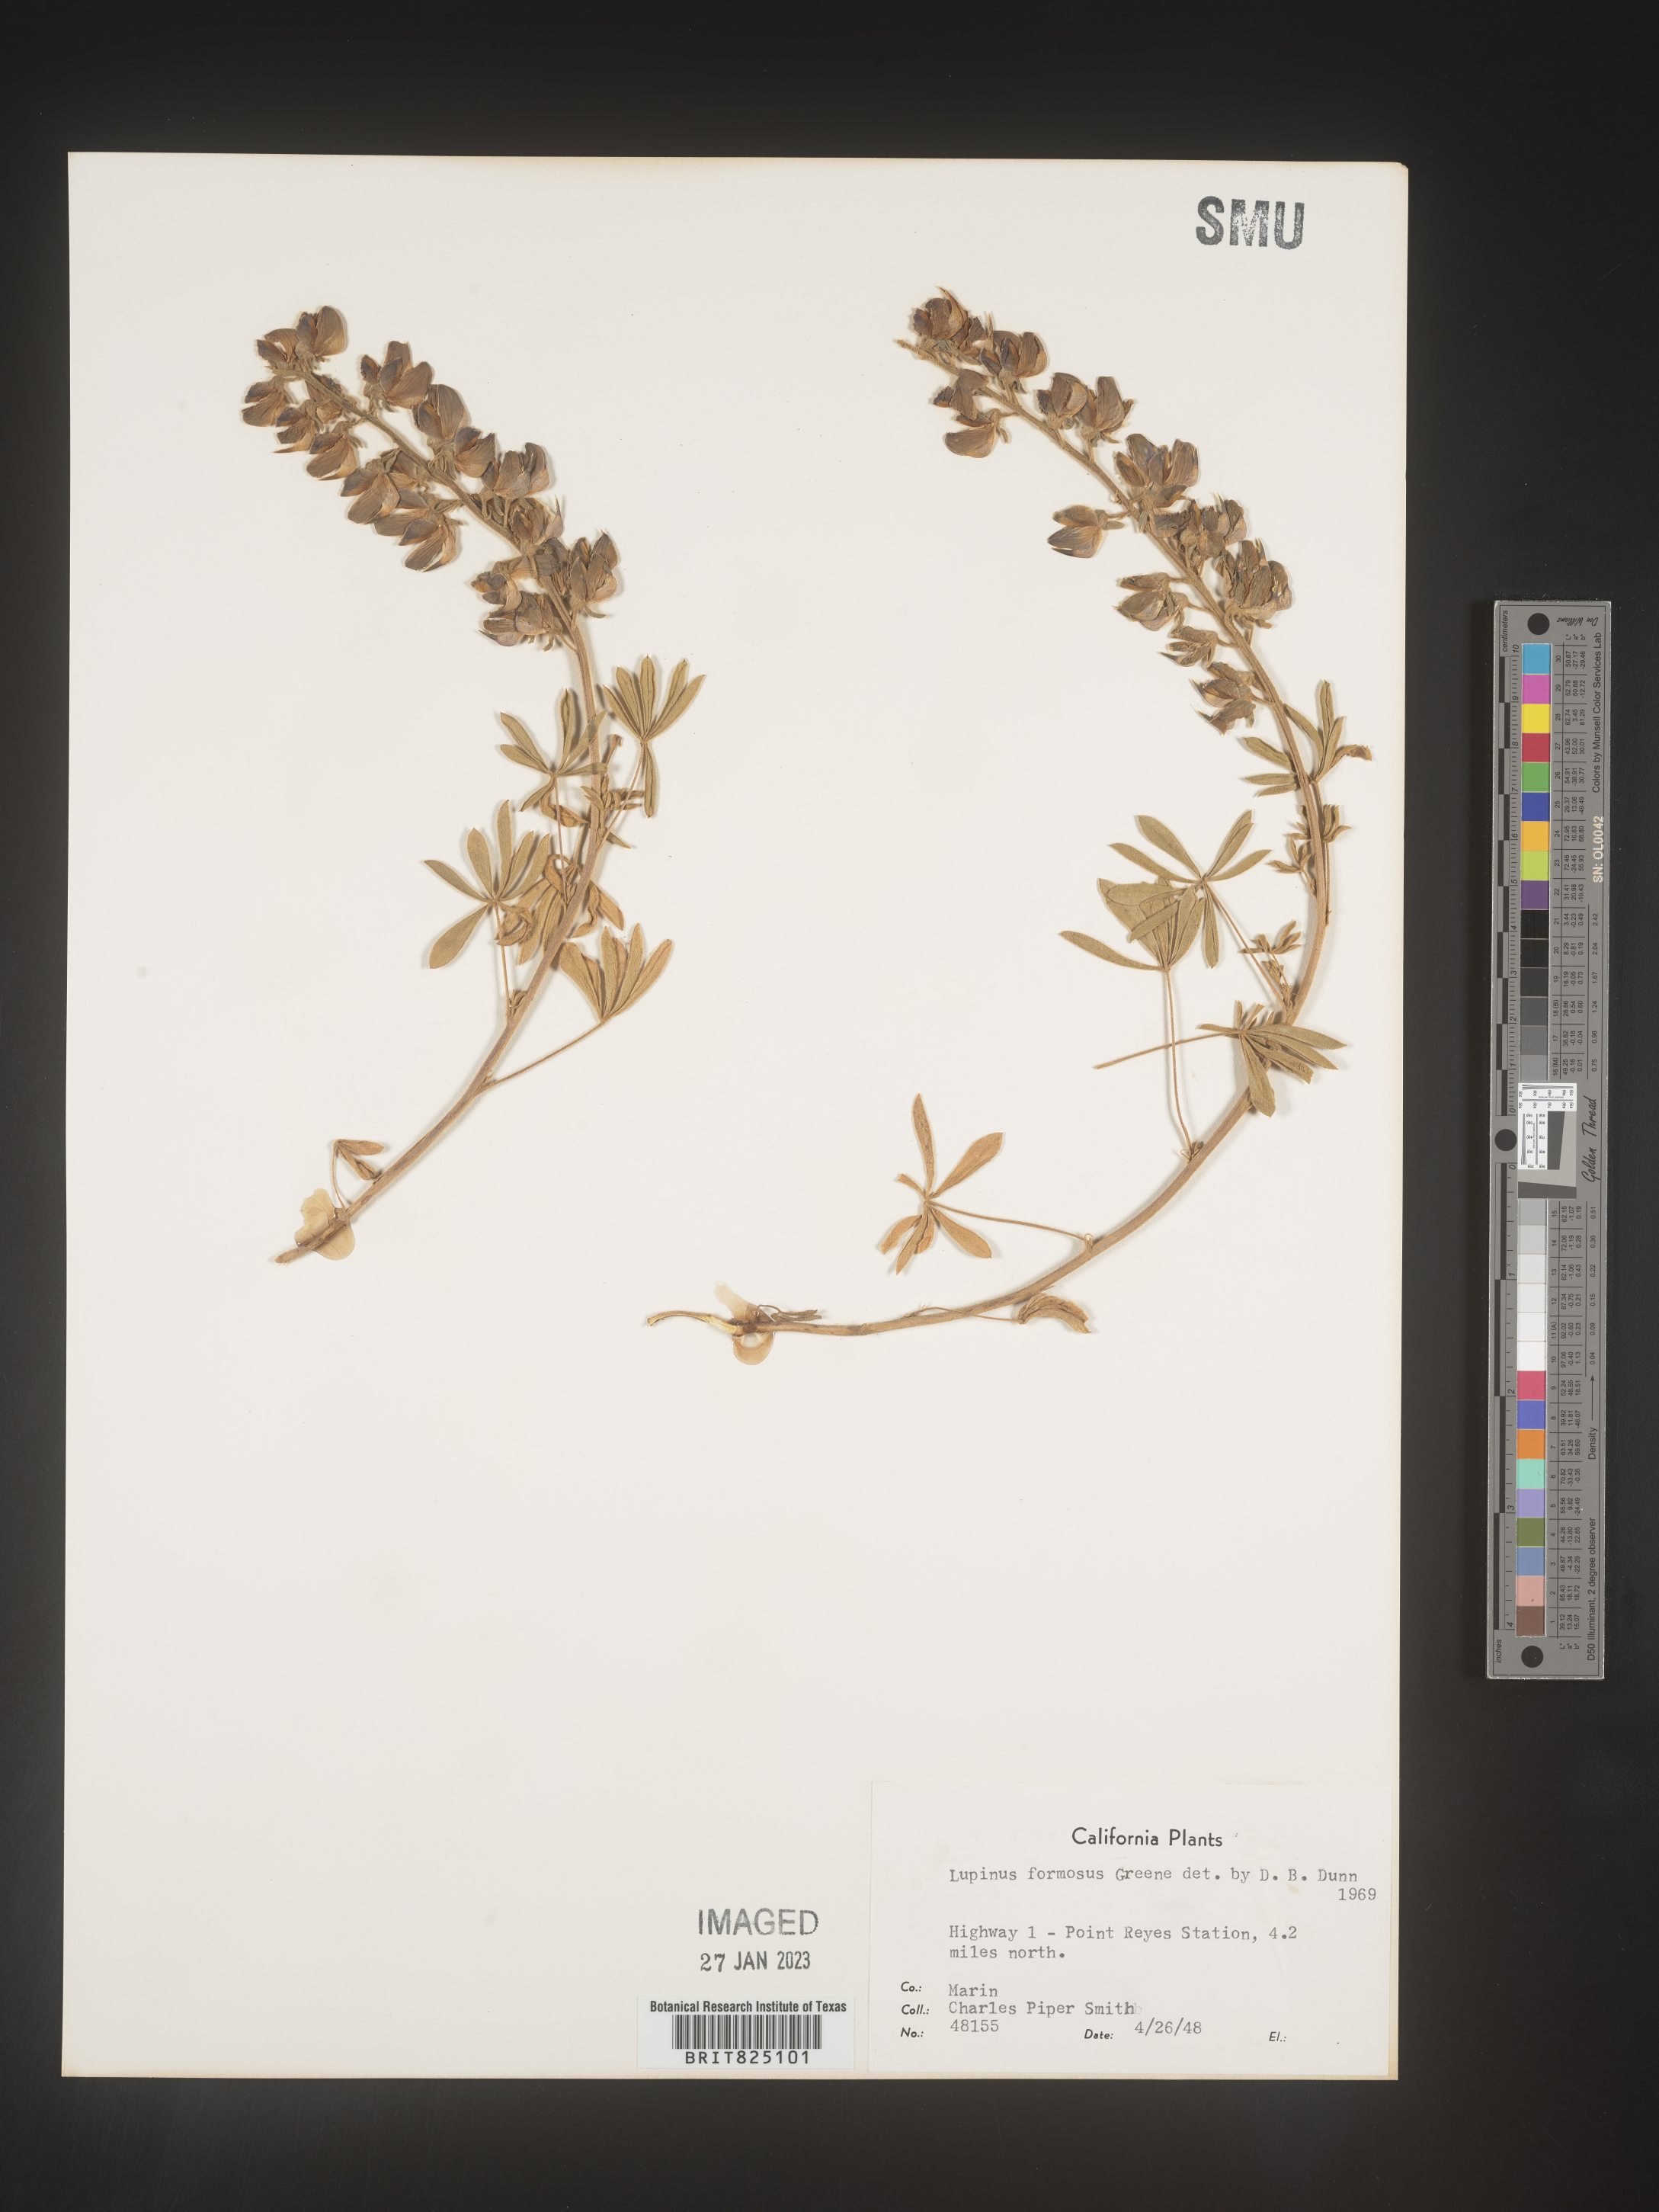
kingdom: Plantae
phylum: Tracheophyta
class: Magnoliopsida
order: Fabales
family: Fabaceae
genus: Lupinus
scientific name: Lupinus
